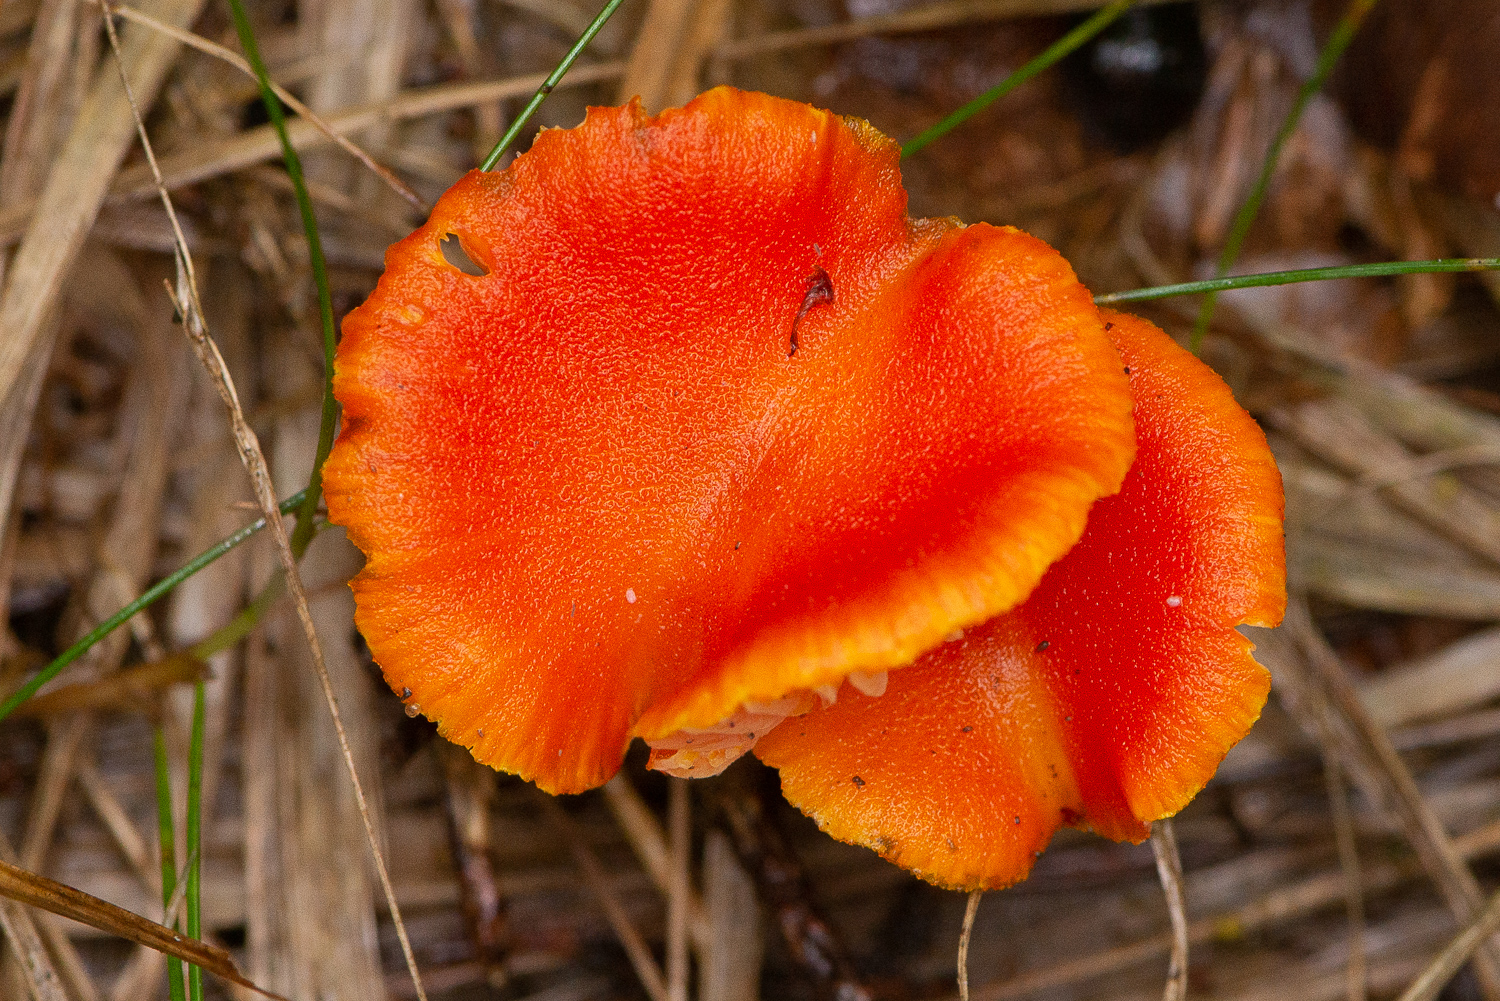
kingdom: Fungi
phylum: Basidiomycota
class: Agaricomycetes
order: Agaricales
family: Hygrophoraceae
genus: Hygrocybe
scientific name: Hygrocybe
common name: vokshat
